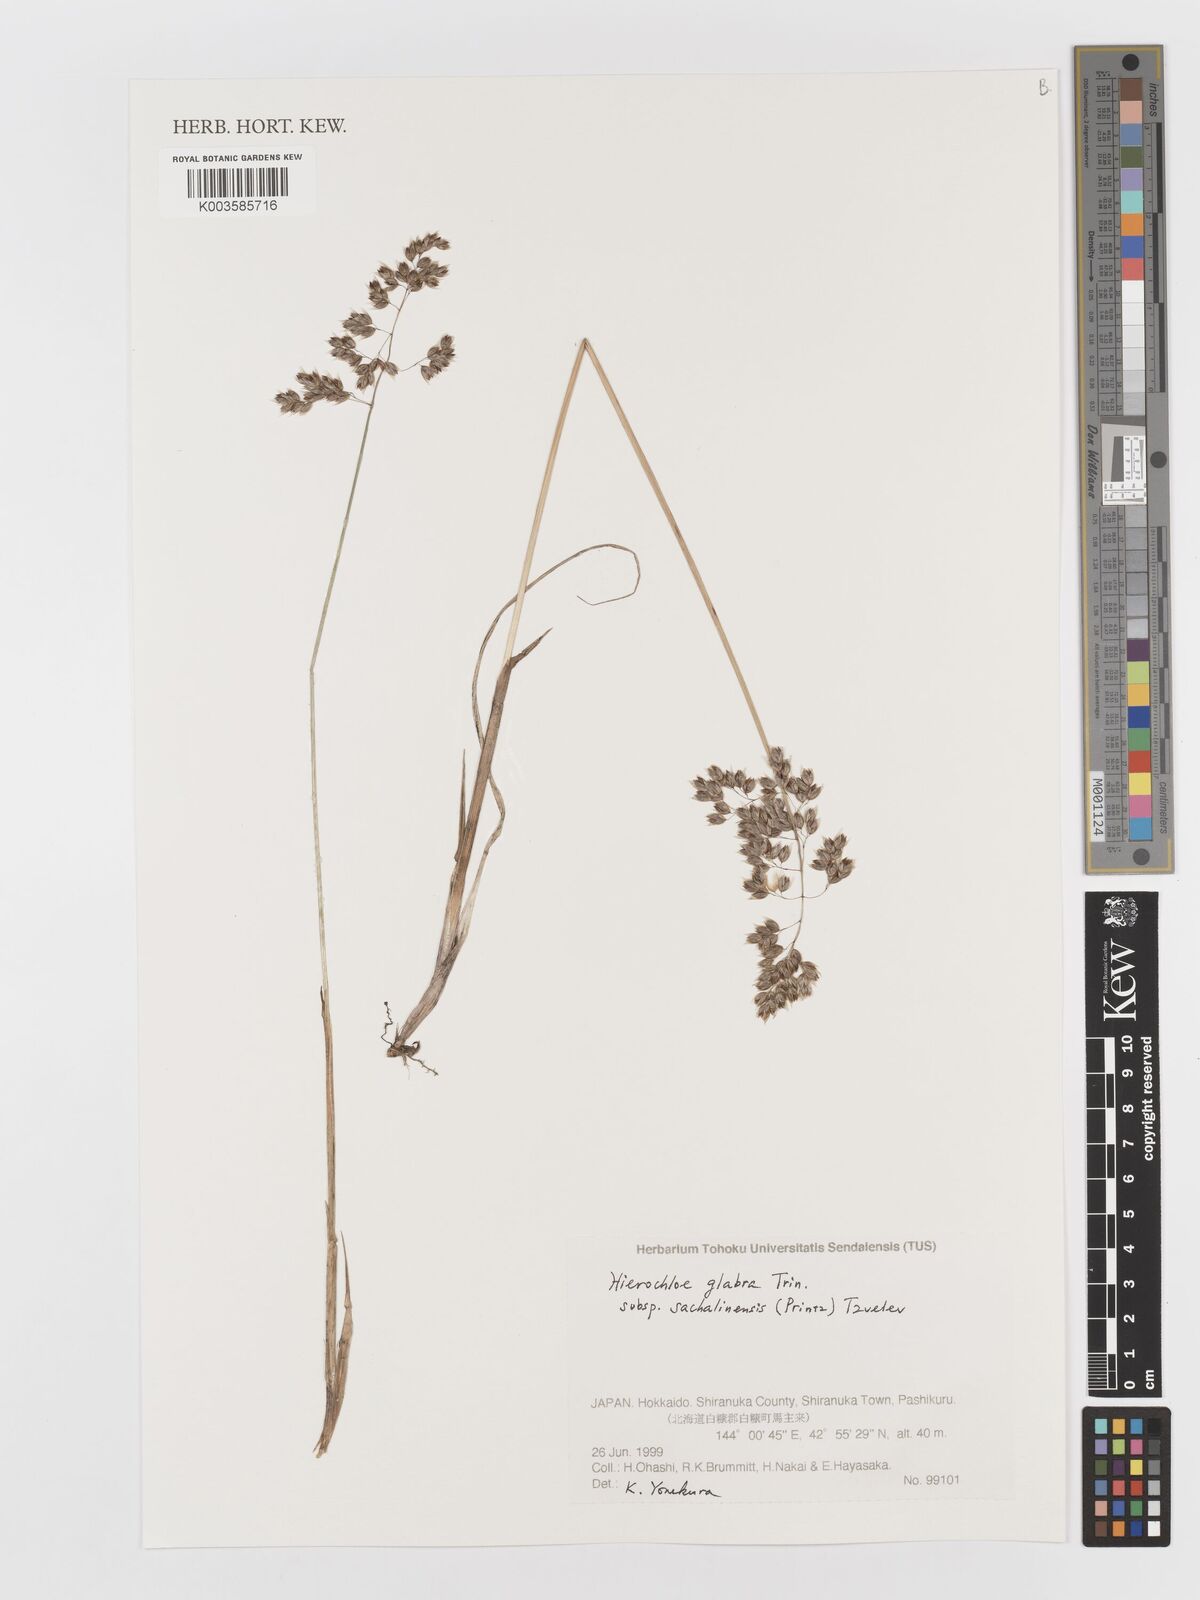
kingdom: Plantae
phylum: Tracheophyta
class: Liliopsida
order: Poales
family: Poaceae
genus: Anthoxanthum
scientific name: Anthoxanthum glabrum
